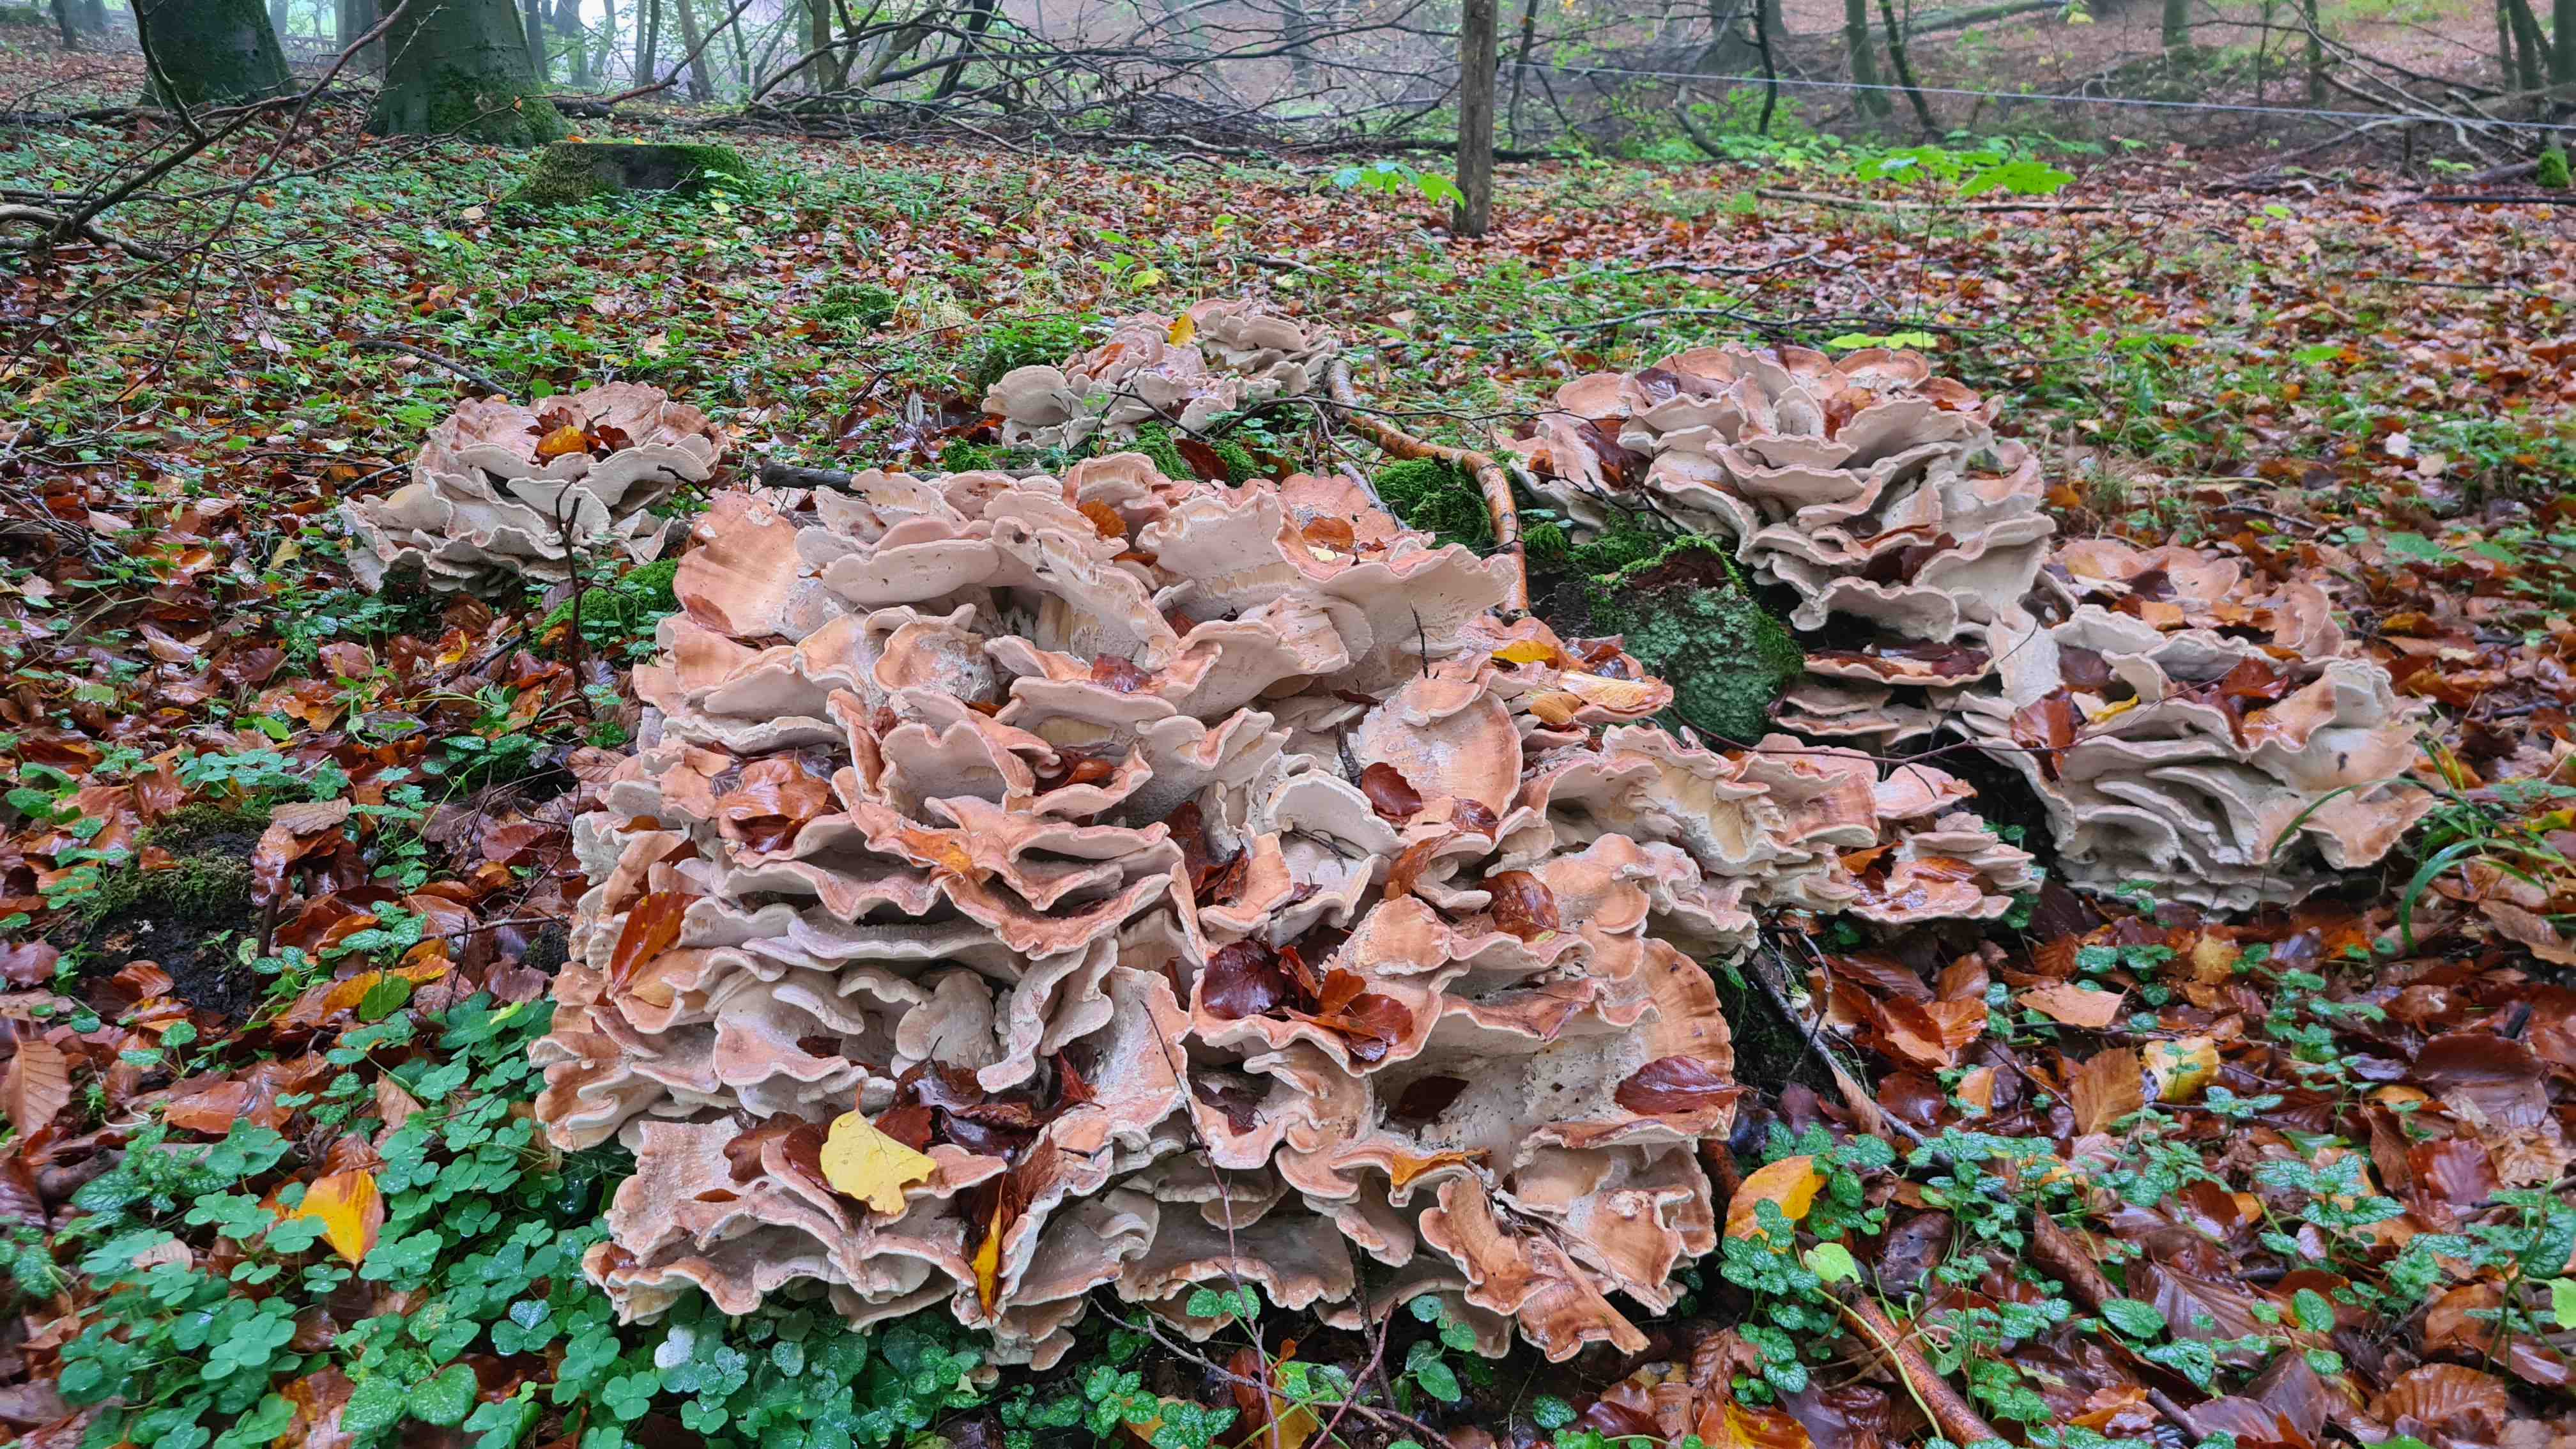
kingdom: Fungi
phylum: Basidiomycota
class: Agaricomycetes
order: Polyporales
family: Meripilaceae
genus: Meripilus
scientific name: Meripilus giganteus
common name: kæmpeporesvamp
